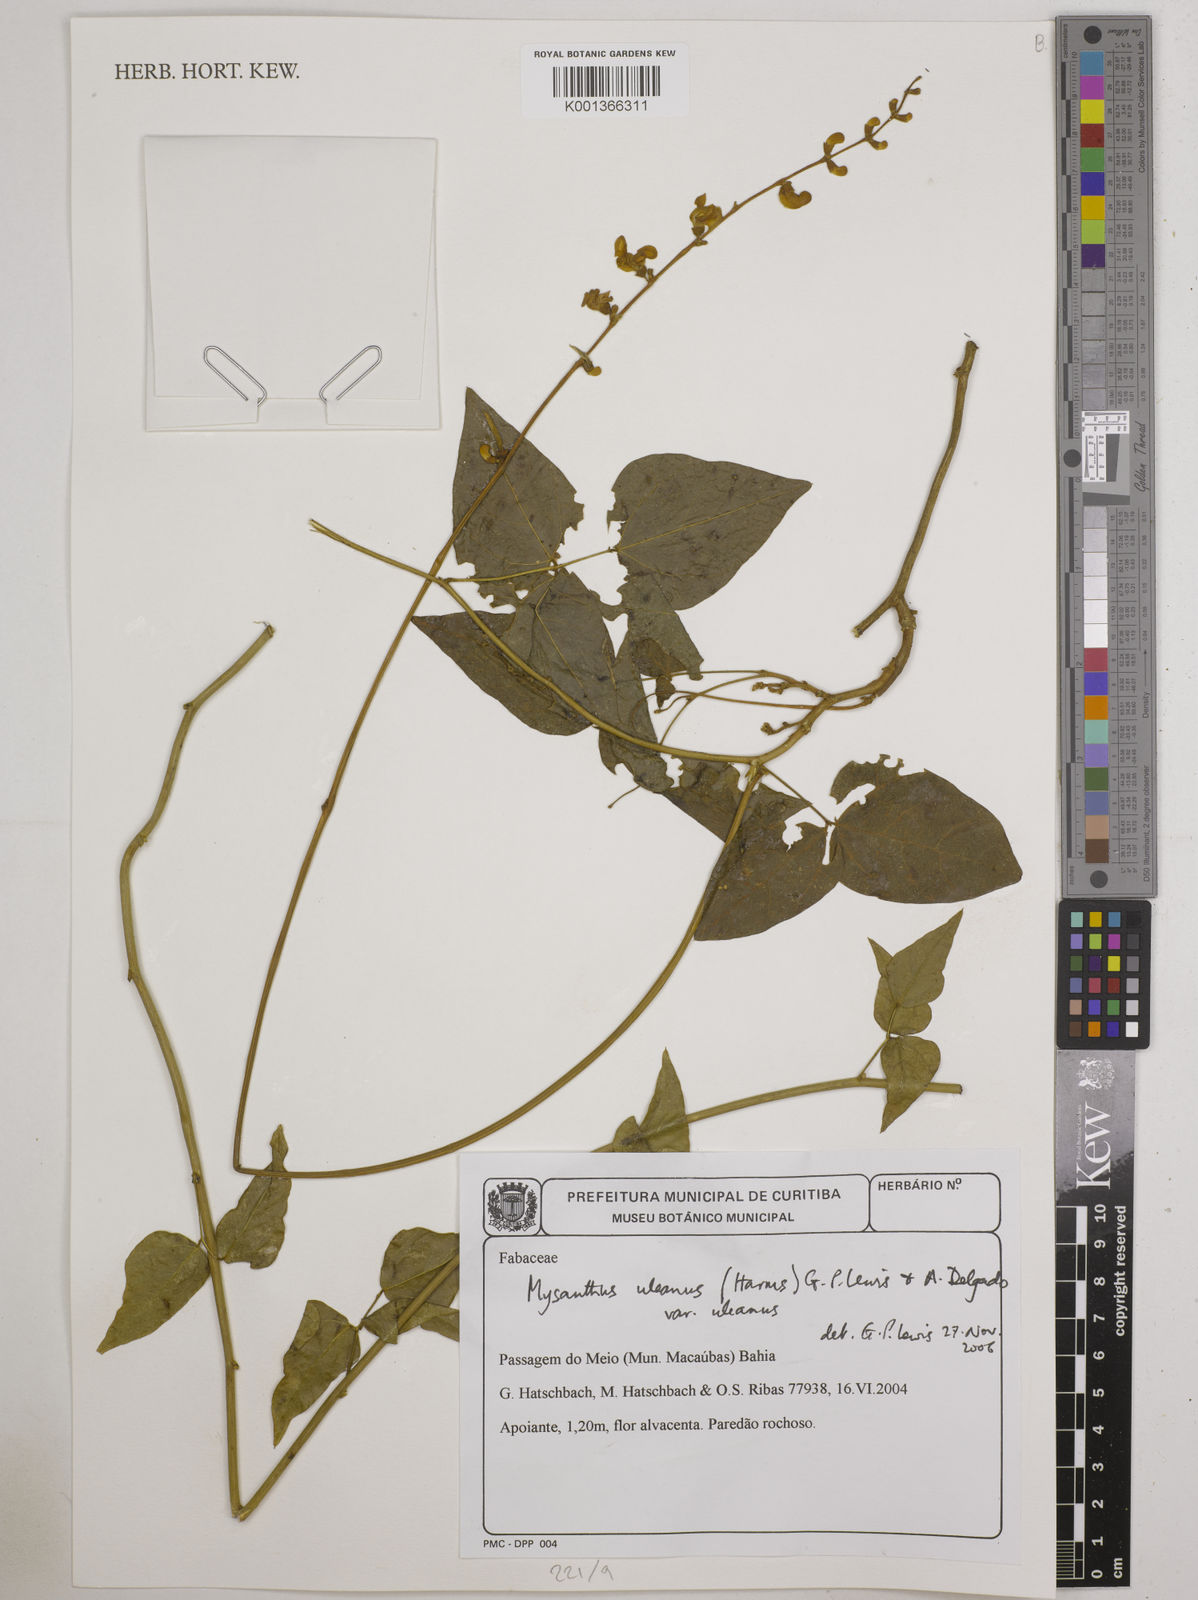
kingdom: Plantae
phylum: Tracheophyta
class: Magnoliopsida
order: Fabales
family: Fabaceae
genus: Mysanthus
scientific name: Mysanthus uleanus
